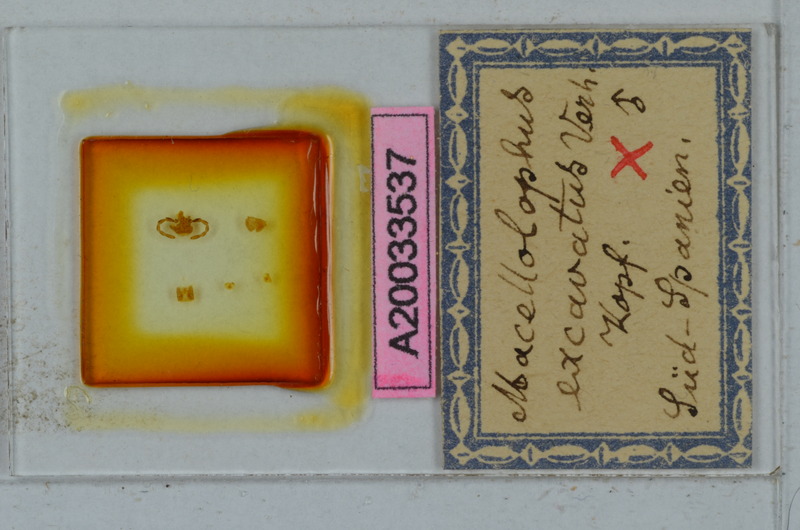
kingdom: Animalia
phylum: Arthropoda
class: Diplopoda
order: Polydesmida
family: Chelodesmidae
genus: Macellolophus
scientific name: Macellolophus rubromarginatus
